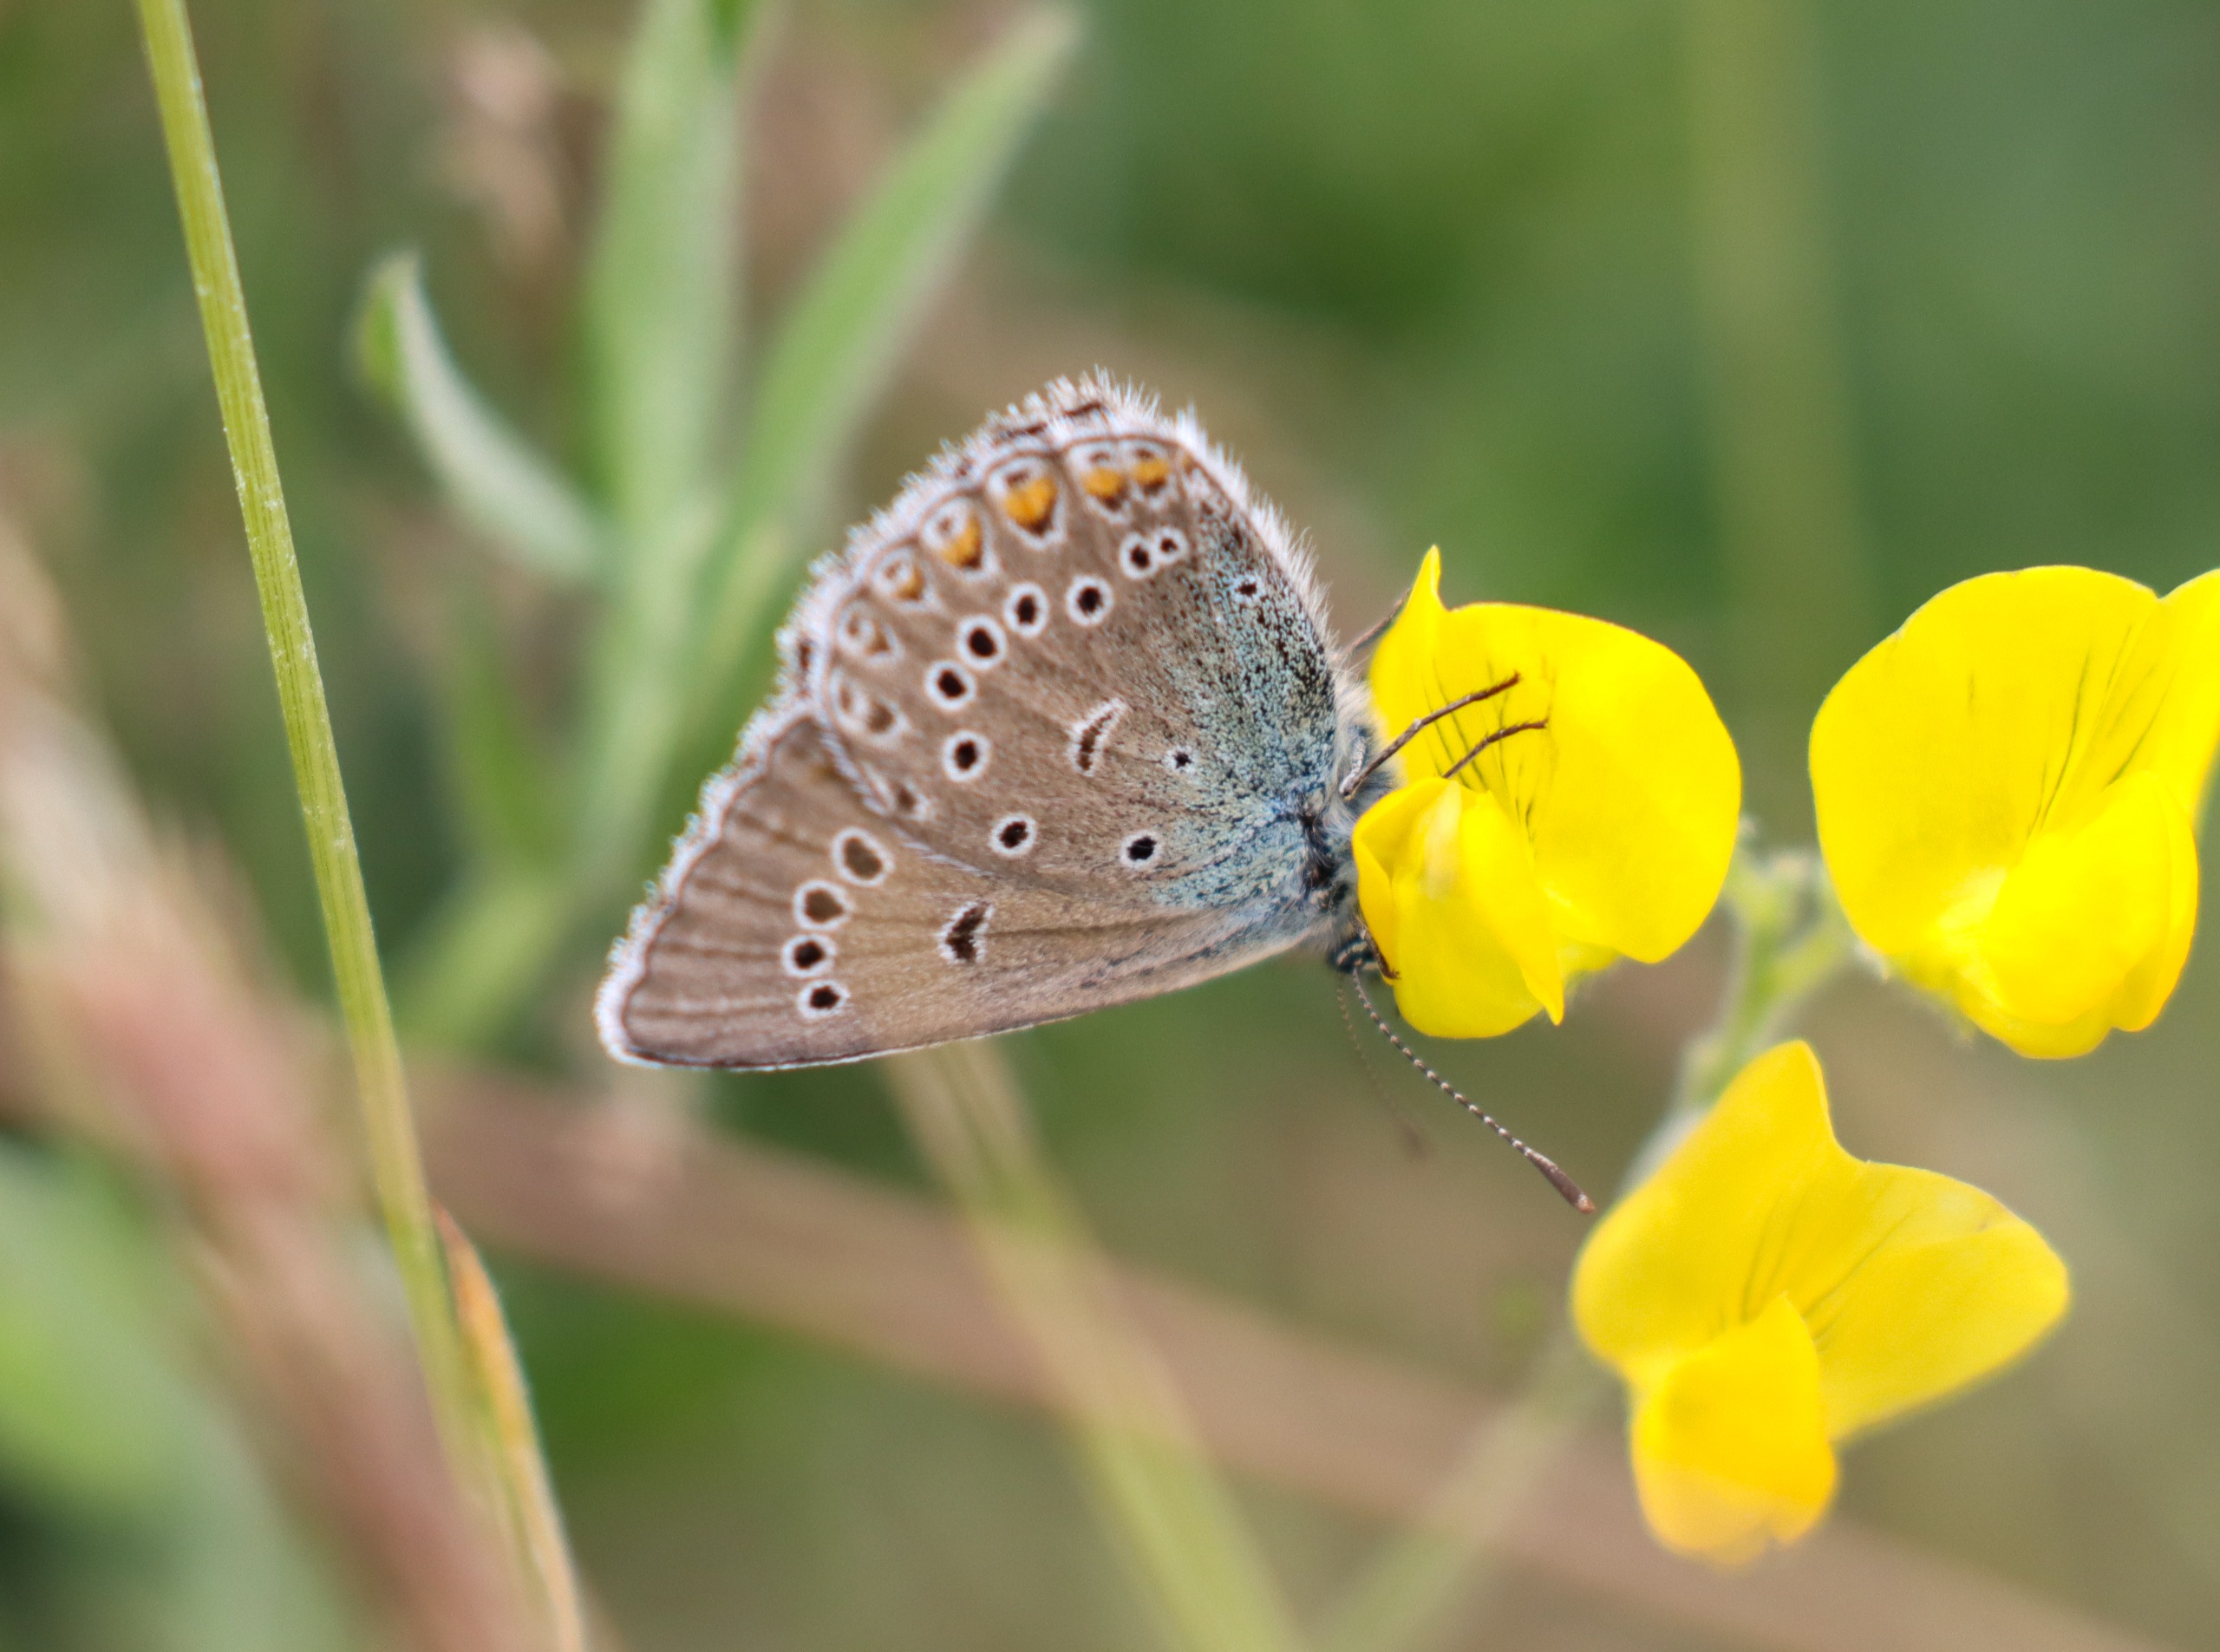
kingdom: Animalia
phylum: Arthropoda
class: Insecta
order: Lepidoptera
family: Lycaenidae
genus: Plebejus
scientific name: Plebejus amanda
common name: Isblåfugl
